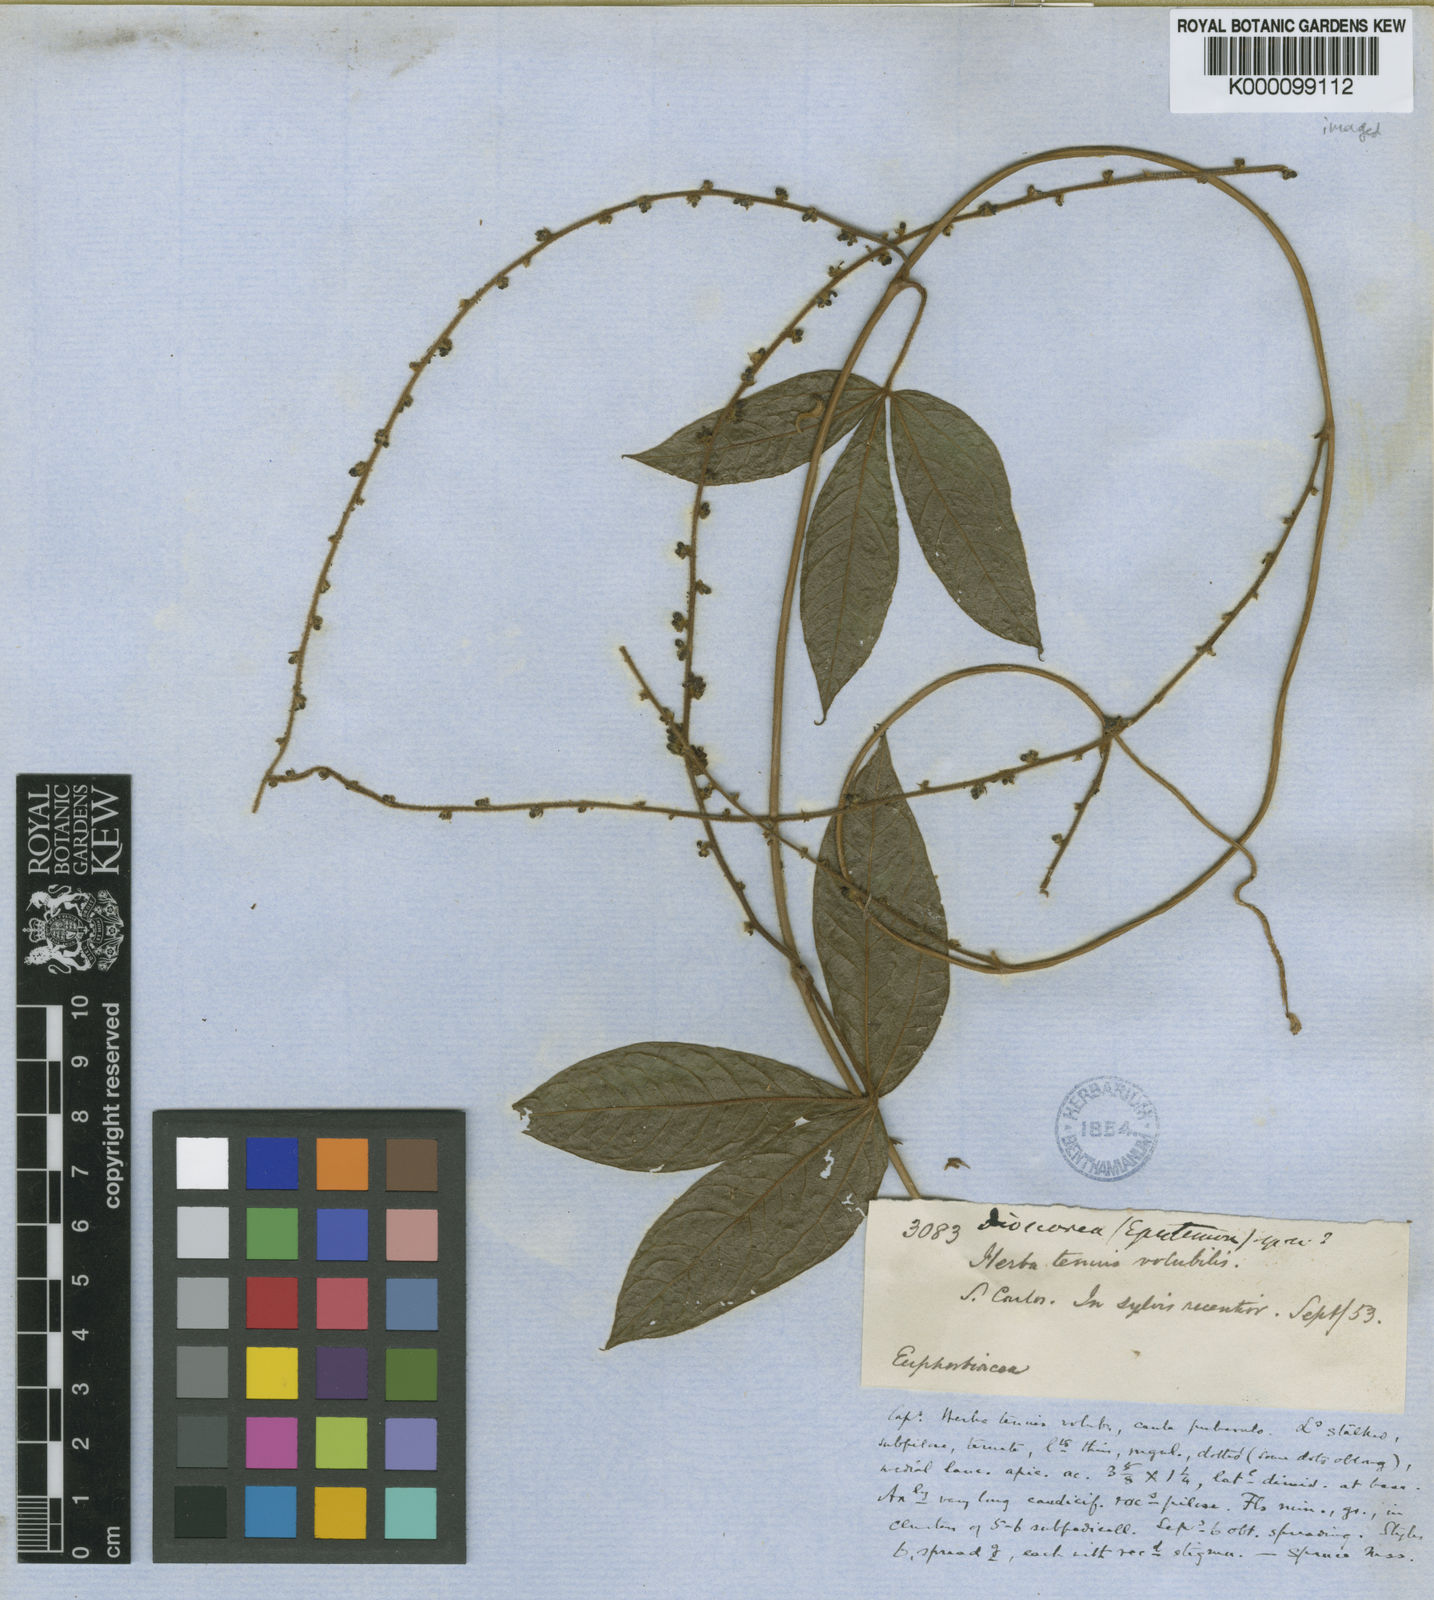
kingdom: Plantae
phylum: Tracheophyta
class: Liliopsida
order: Dioscoreales
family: Dioscoreaceae
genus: Dioscorea
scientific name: Dioscorea crotalariifolia
